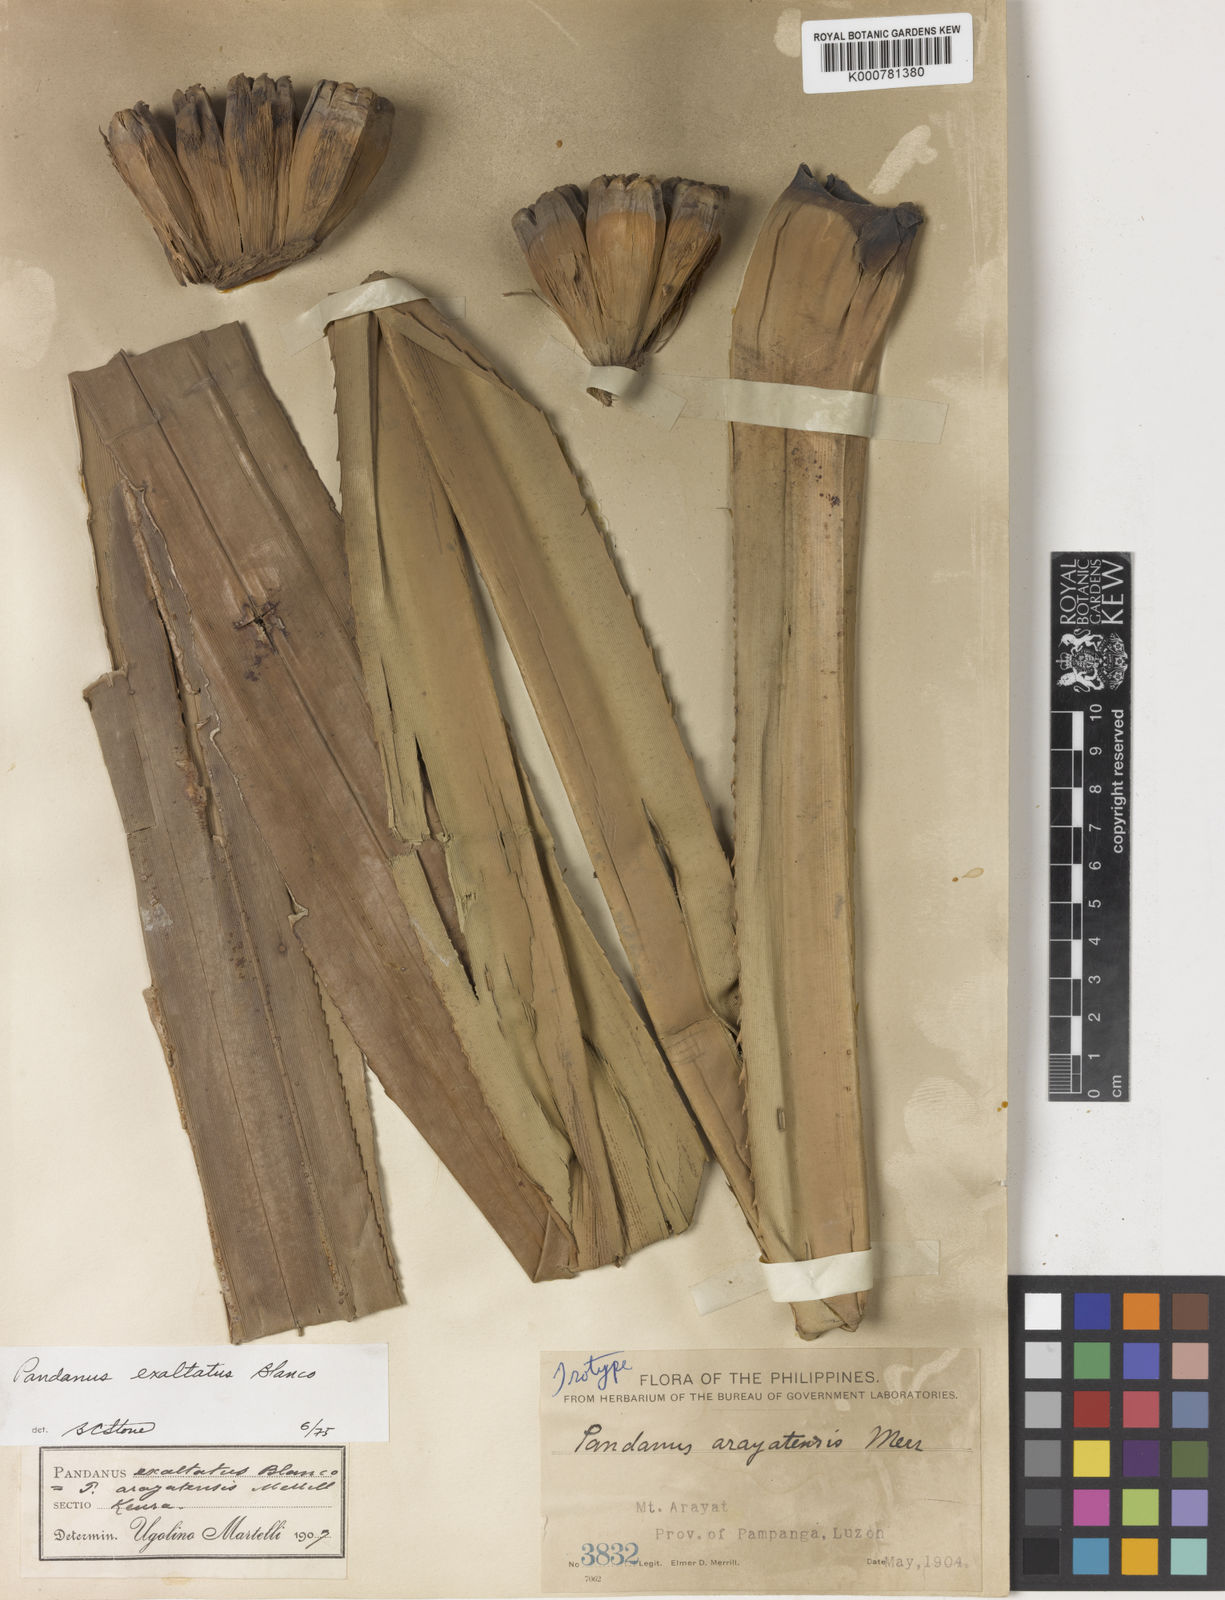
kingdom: Plantae
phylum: Tracheophyta
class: Liliopsida
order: Pandanales
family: Pandanaceae
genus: Pandanus
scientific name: Pandanus exaltatus
